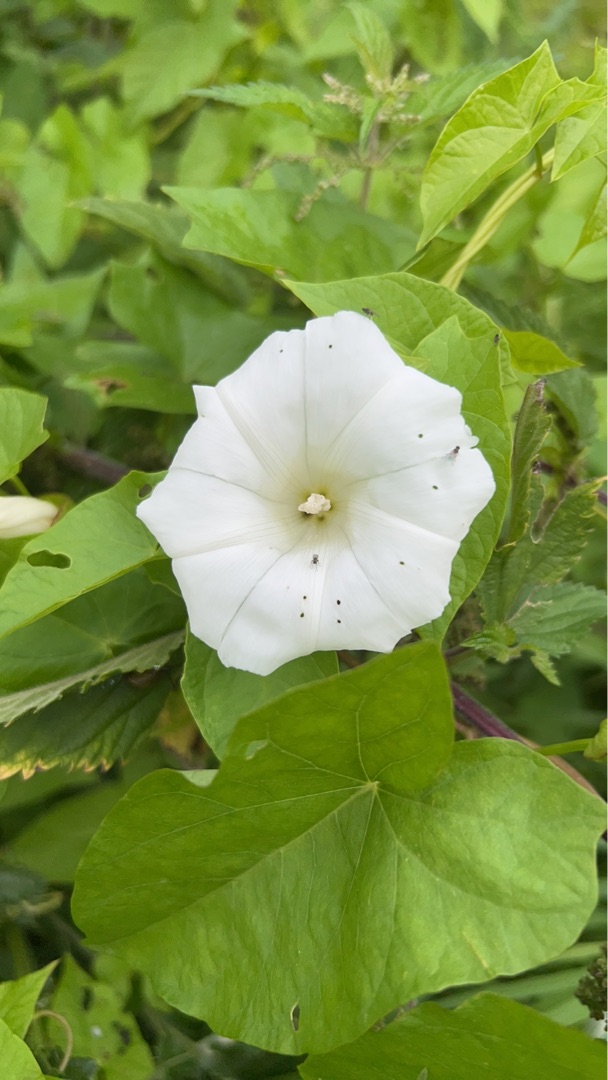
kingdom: Plantae
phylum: Tracheophyta
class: Magnoliopsida
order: Solanales
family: Convolvulaceae
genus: Calystegia
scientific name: Calystegia sepium
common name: Gærde-snerle
